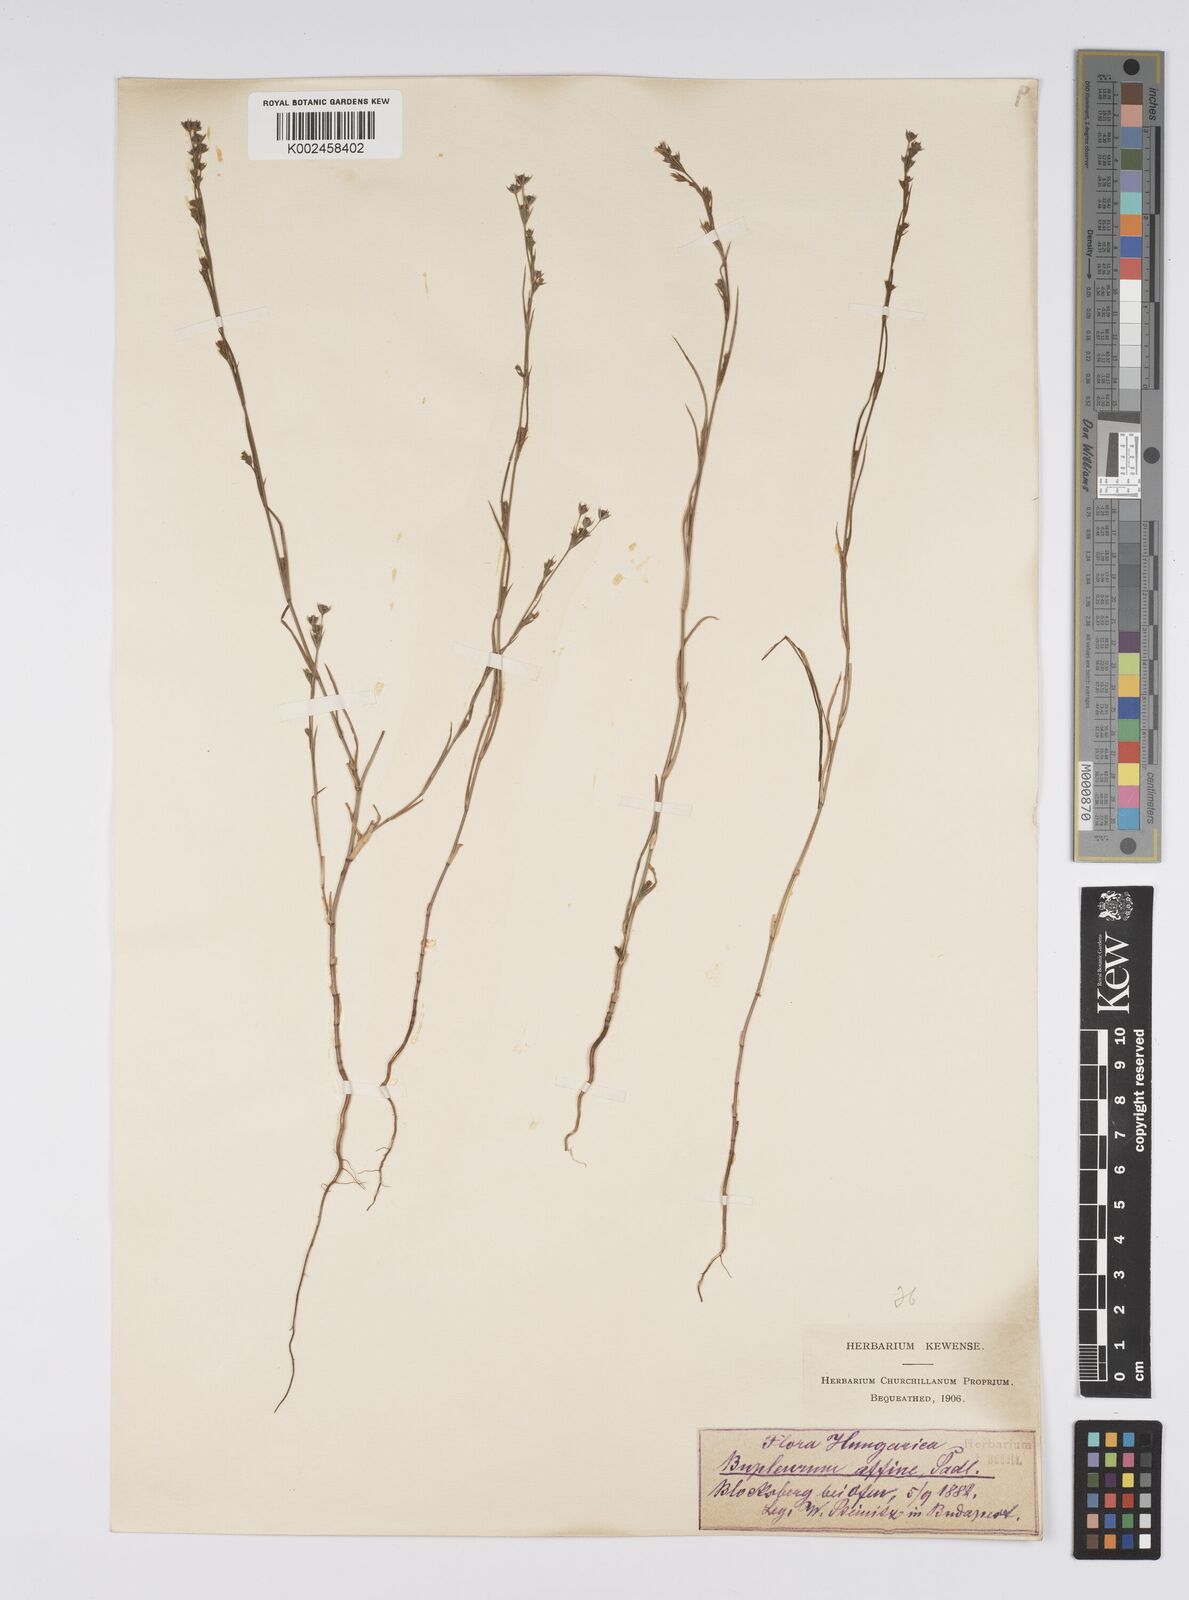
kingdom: Plantae
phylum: Tracheophyta
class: Magnoliopsida
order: Apiales
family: Apiaceae
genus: Bupleurum
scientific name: Bupleurum affine
